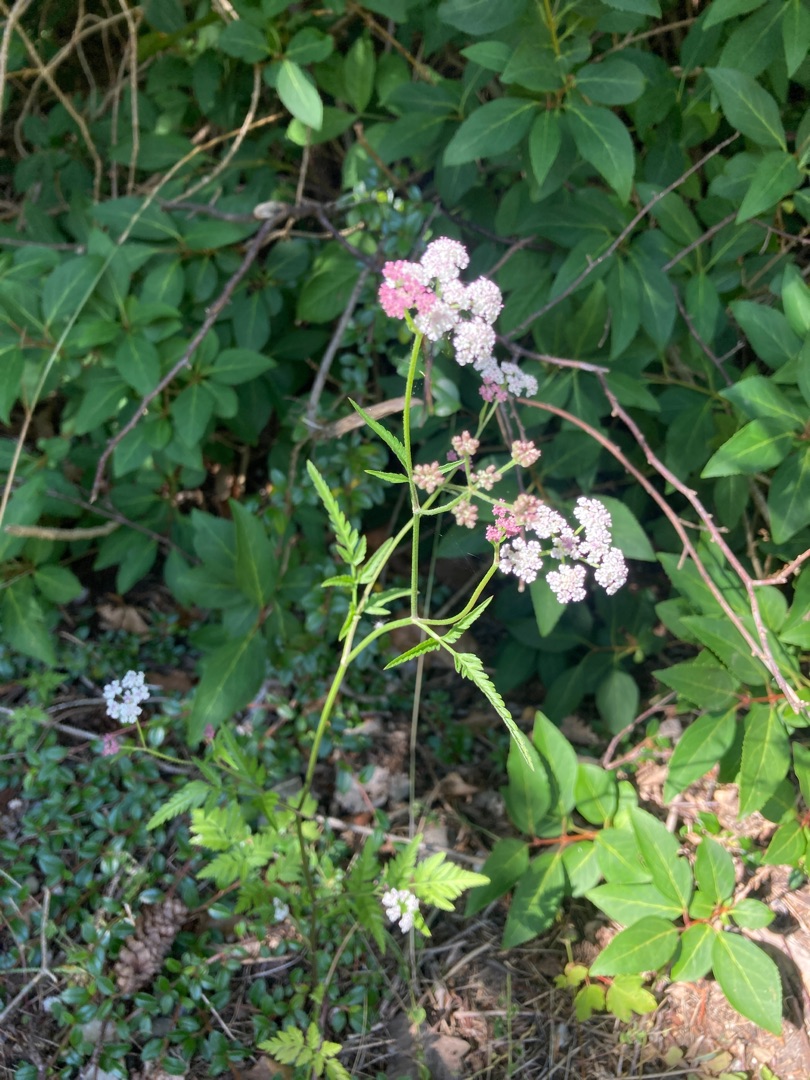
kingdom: Plantae
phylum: Tracheophyta
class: Magnoliopsida
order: Apiales
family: Apiaceae
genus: Torilis
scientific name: Torilis japonica
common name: Hvas randfrø
